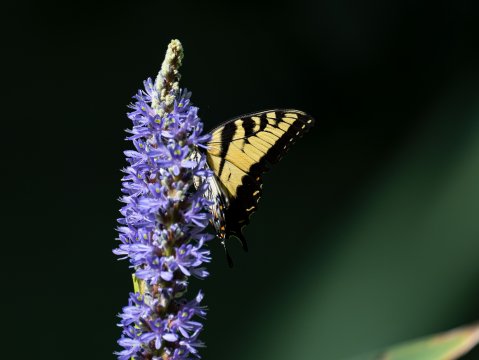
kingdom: Animalia
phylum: Arthropoda
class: Insecta
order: Lepidoptera
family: Papilionidae
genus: Pterourus
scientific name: Pterourus glaucus
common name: Eastern Tiger Swallowtail
